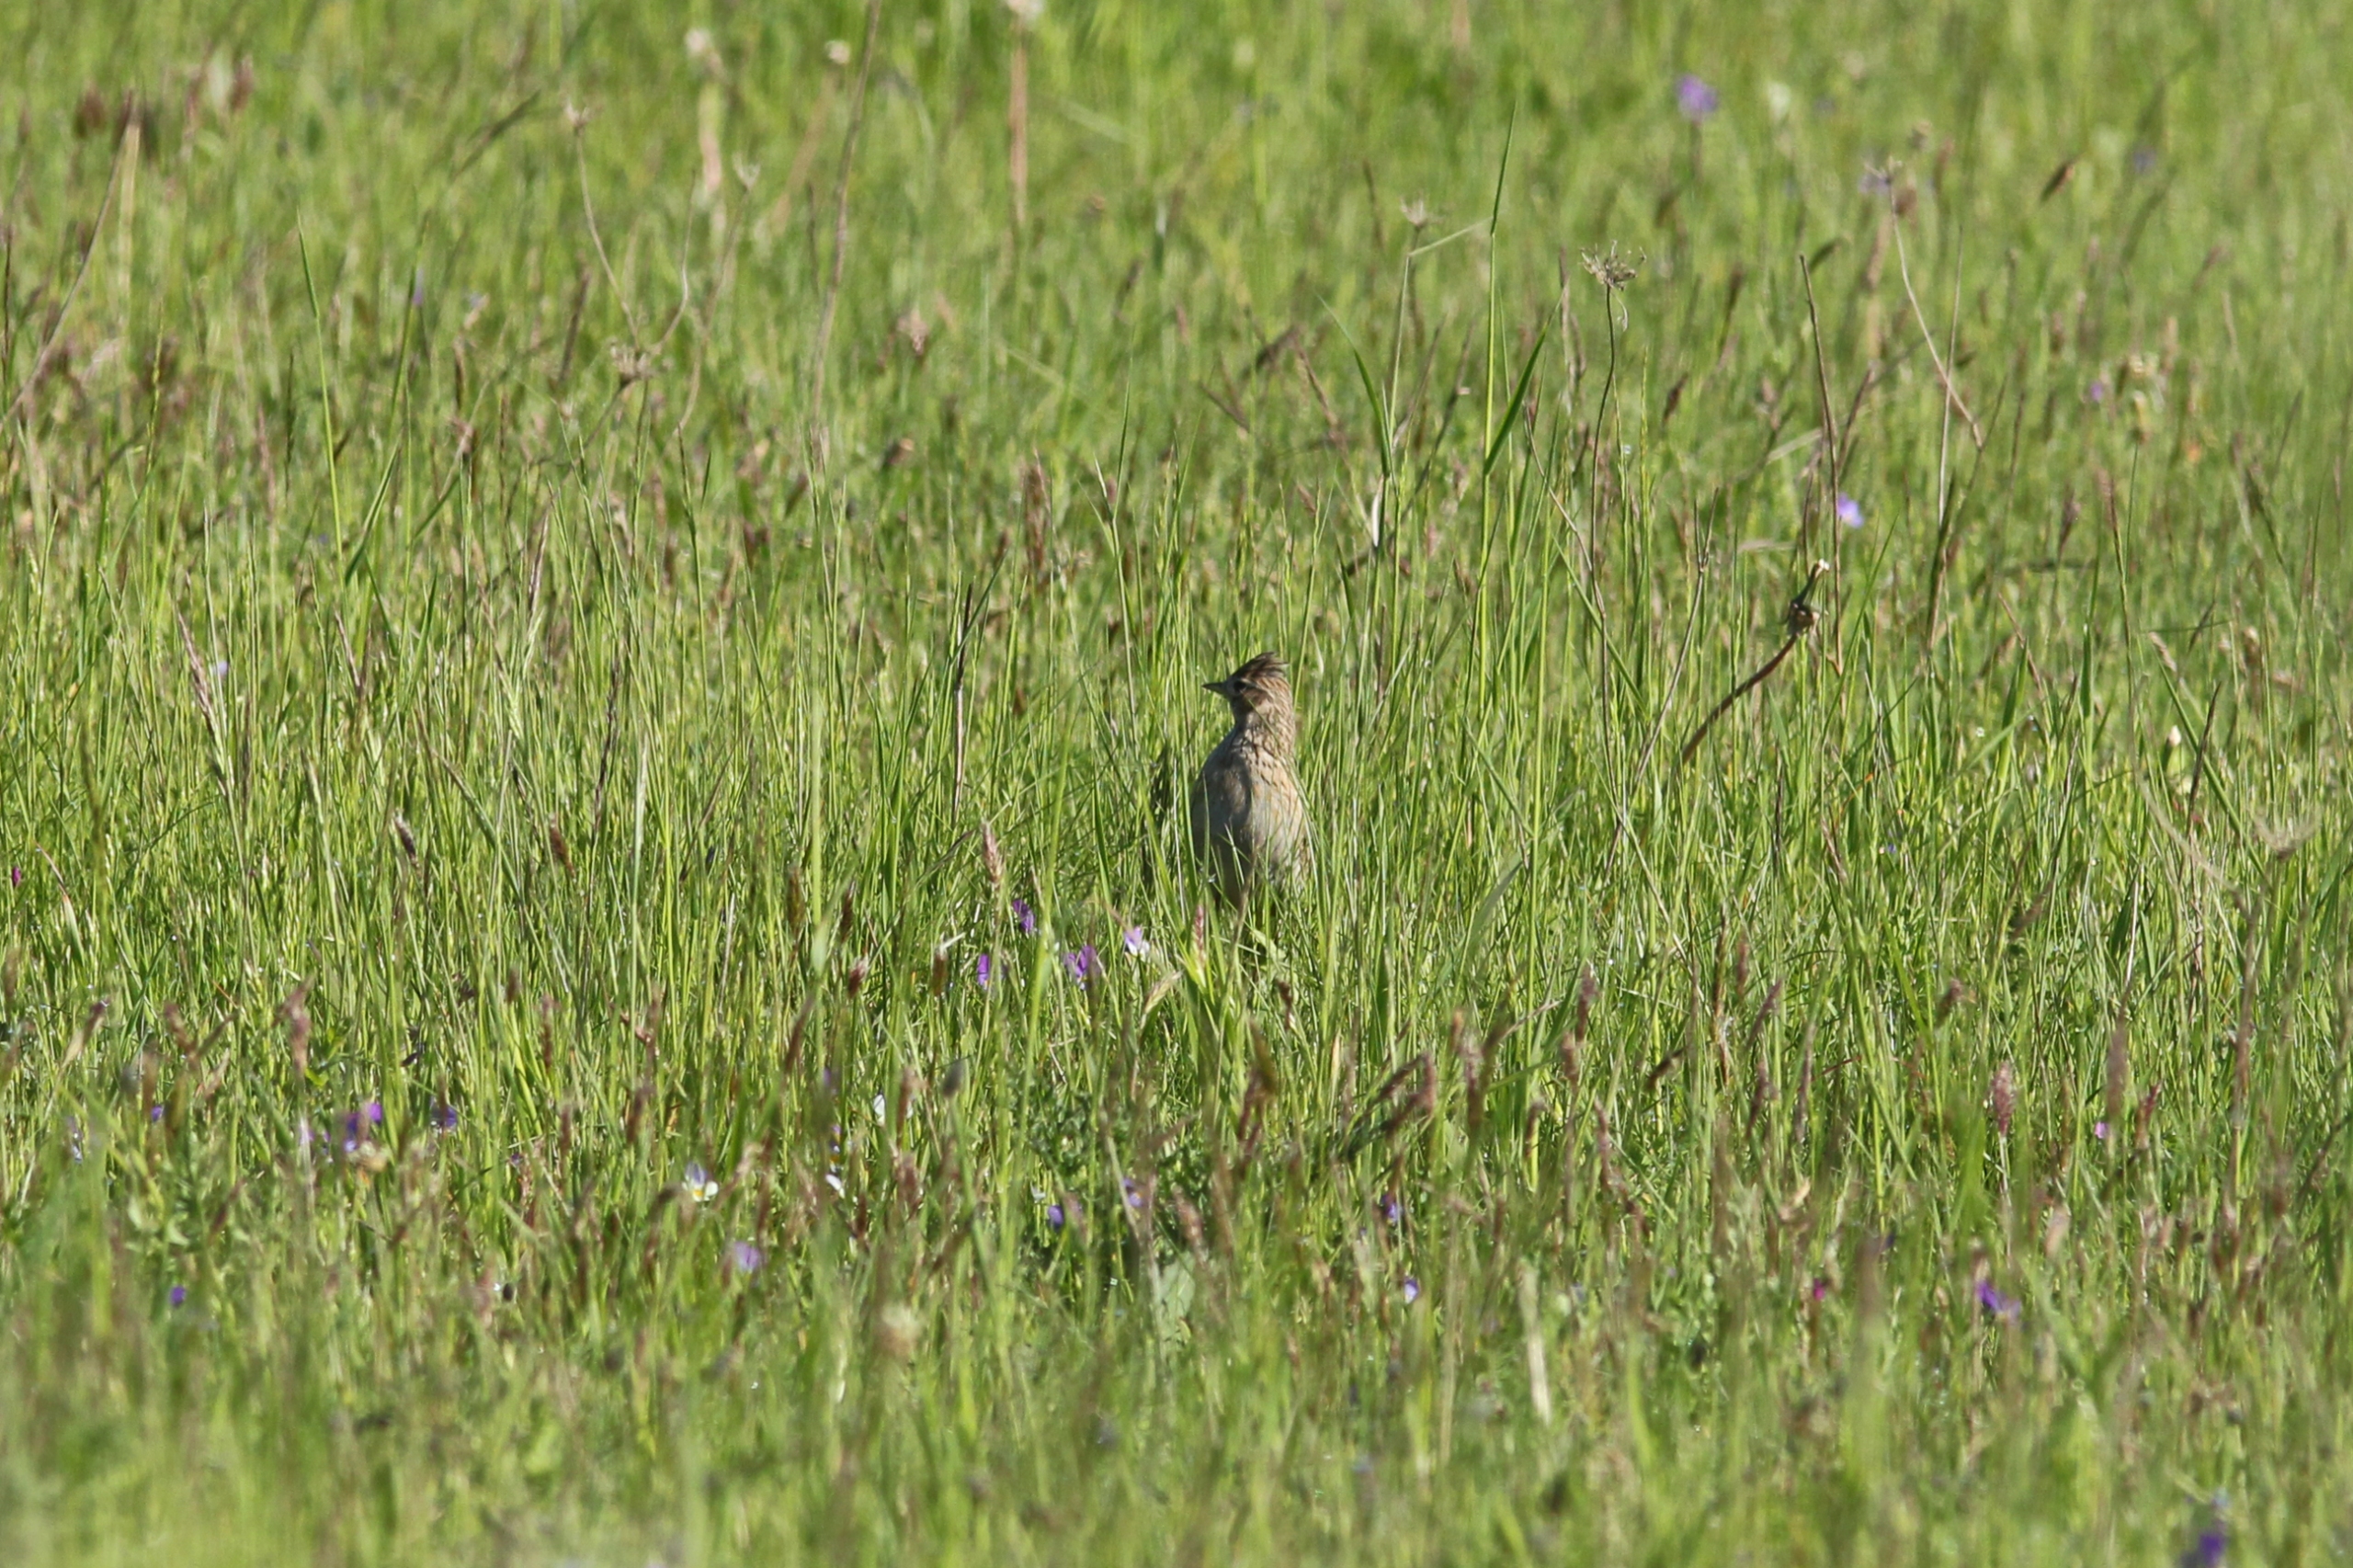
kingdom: Animalia
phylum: Chordata
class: Aves
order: Passeriformes
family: Alaudidae
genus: Alauda
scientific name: Alauda arvensis
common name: Sanglærke
